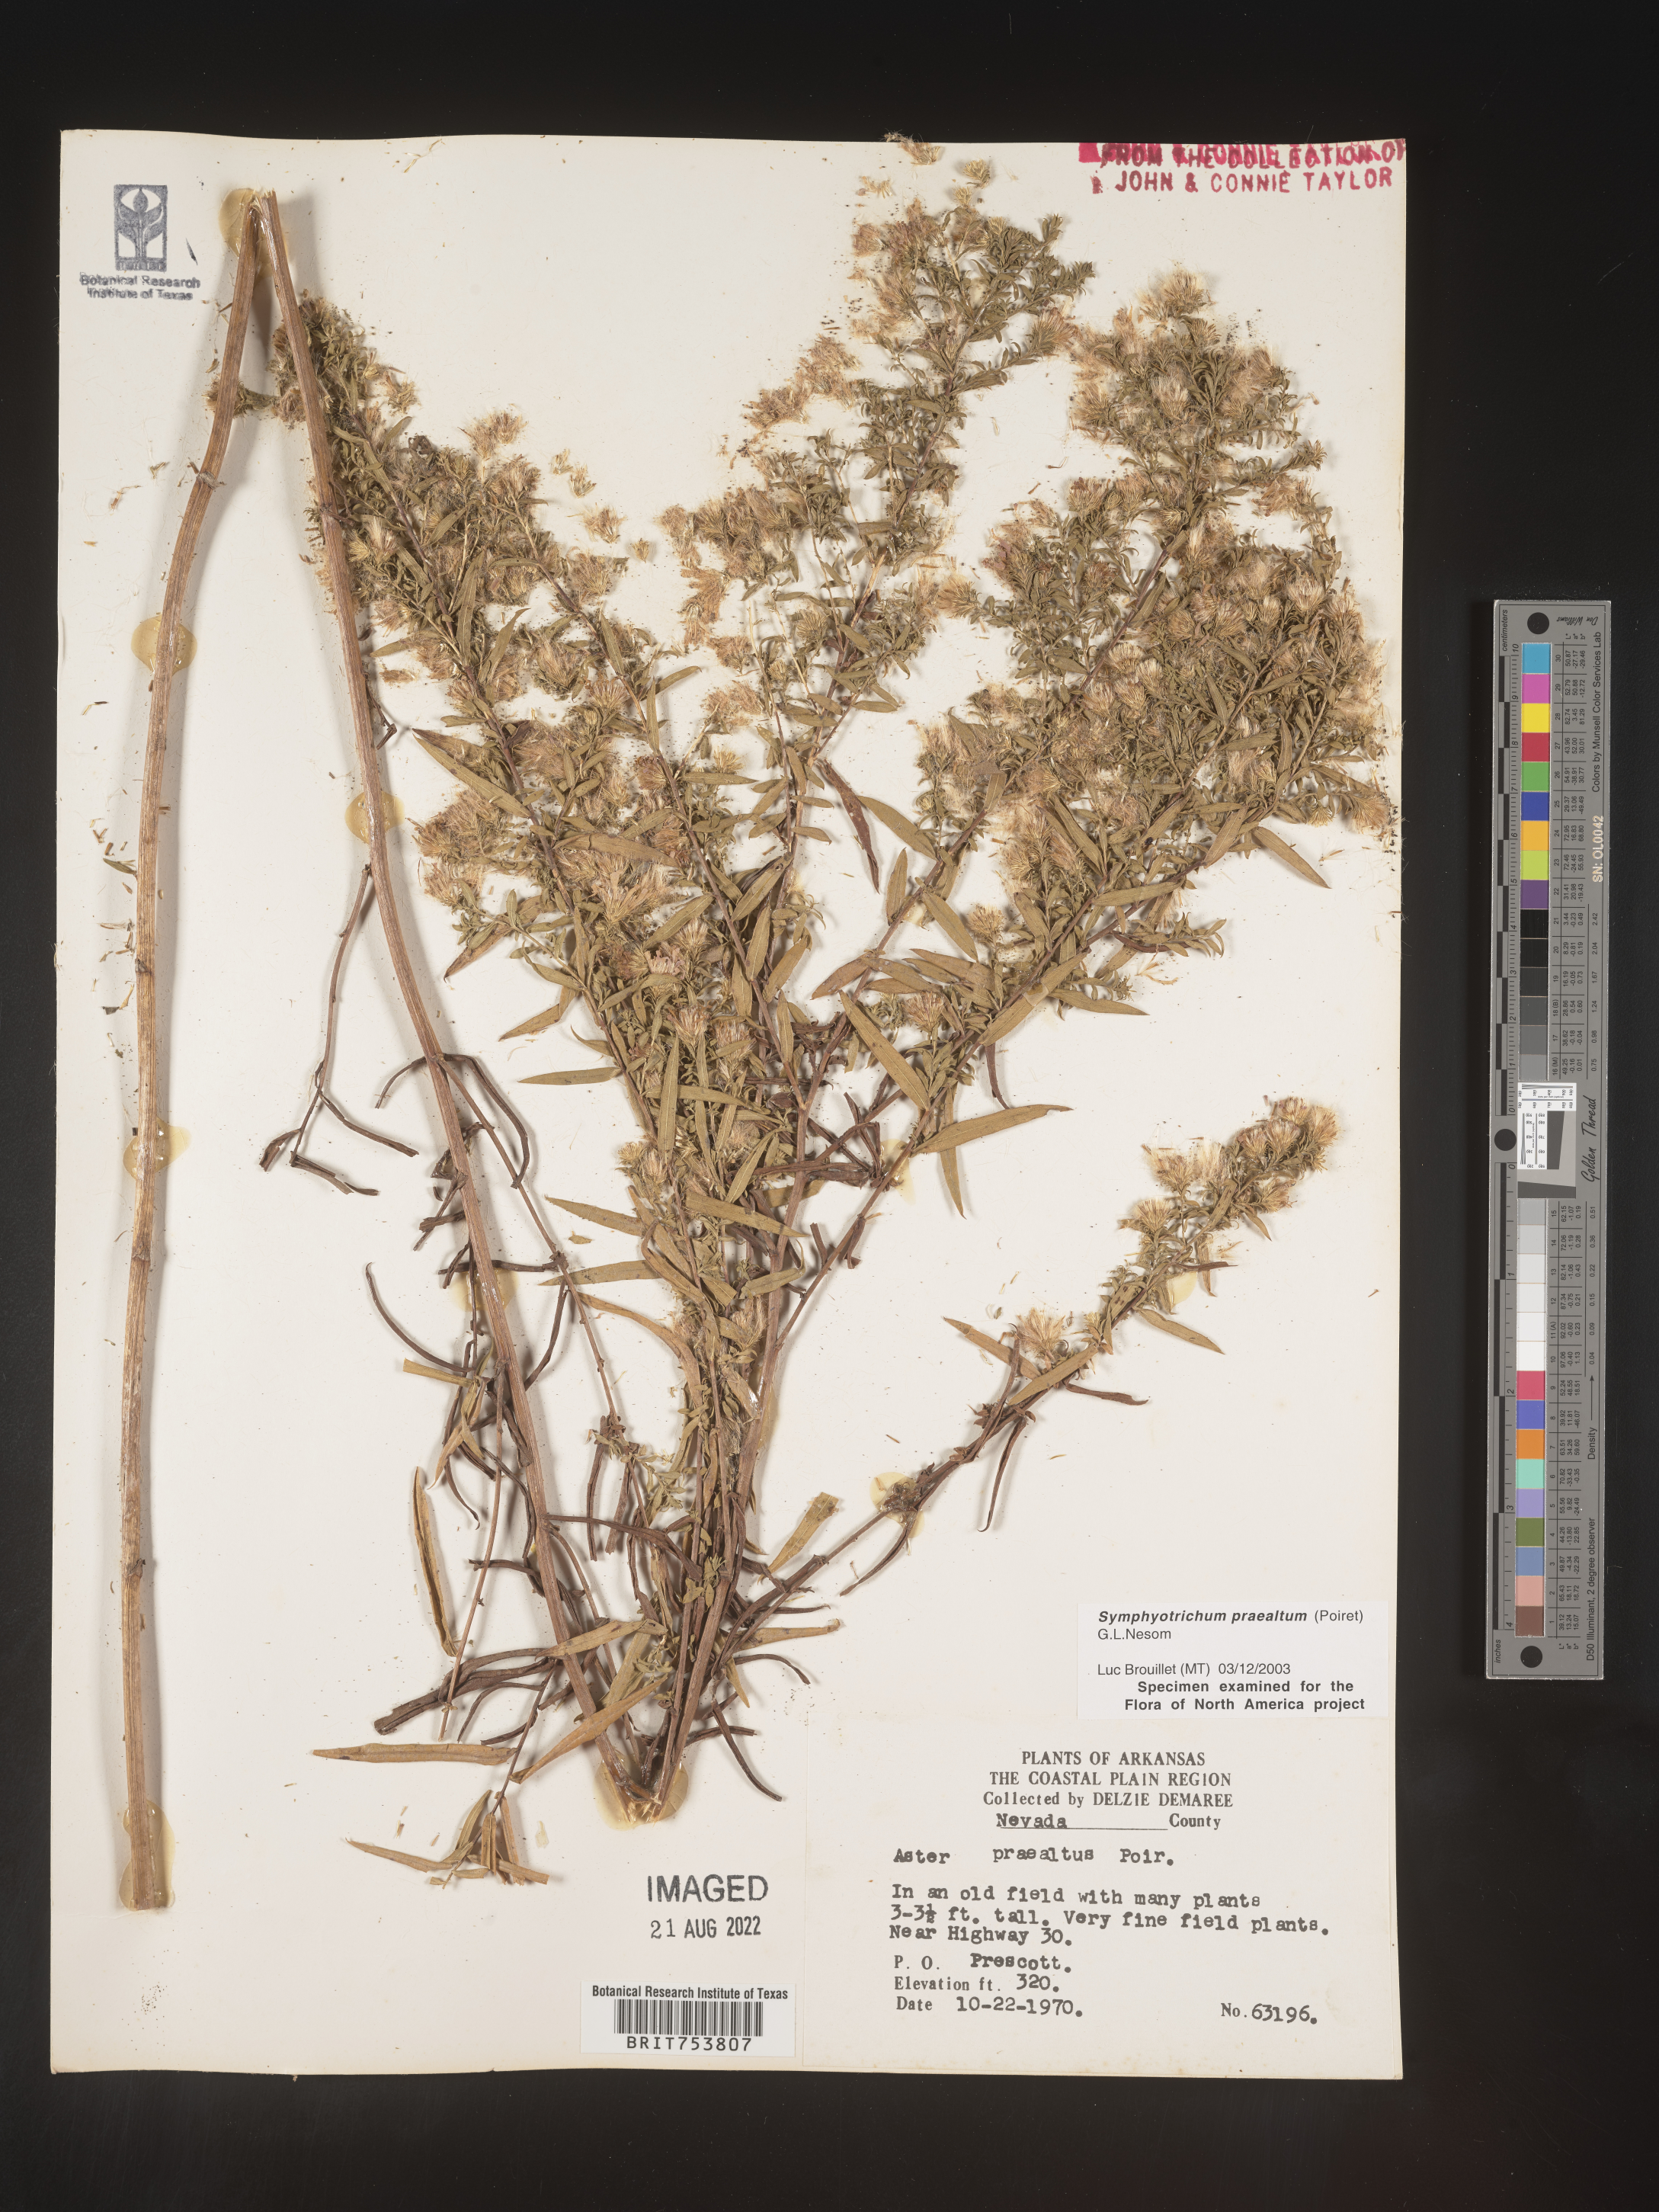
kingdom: Plantae
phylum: Tracheophyta
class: Magnoliopsida
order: Asterales
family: Asteraceae
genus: Symphyotrichum
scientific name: Symphyotrichum praealtum
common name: Willow aster
